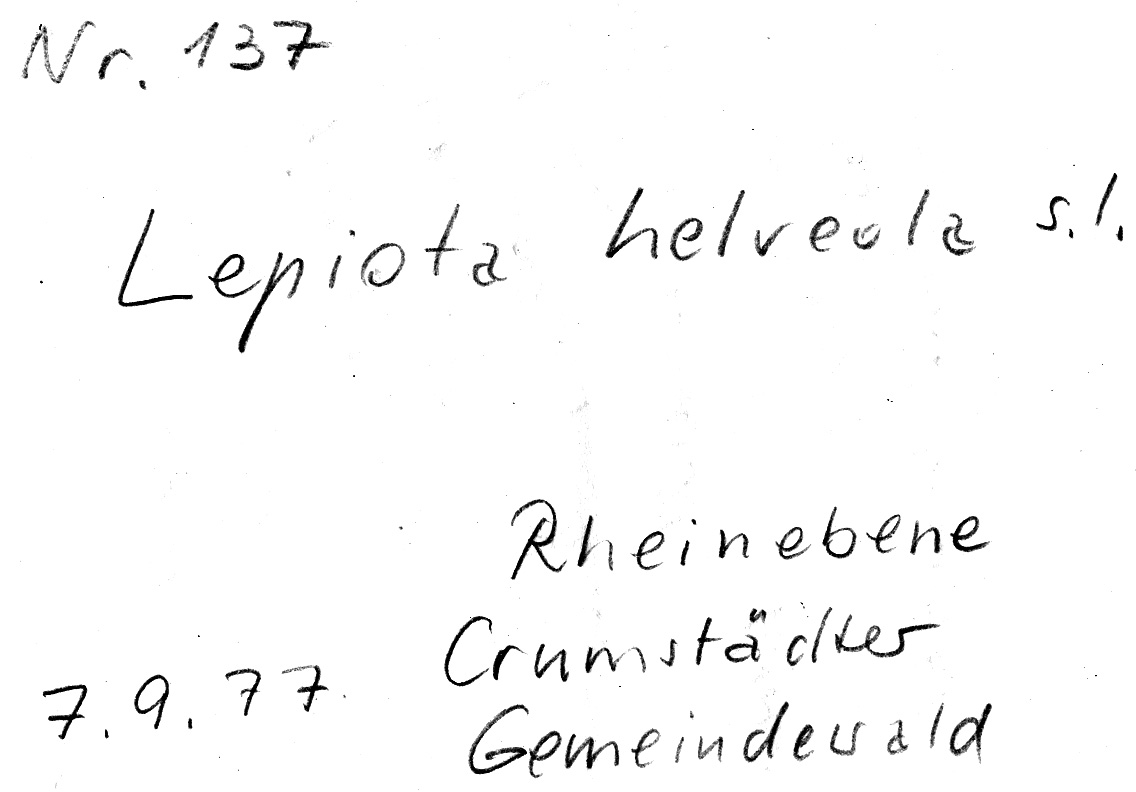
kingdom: Fungi
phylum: Basidiomycota
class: Agaricomycetes
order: Agaricales
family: Agaricaceae
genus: Lepiota
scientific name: Lepiota helveola
